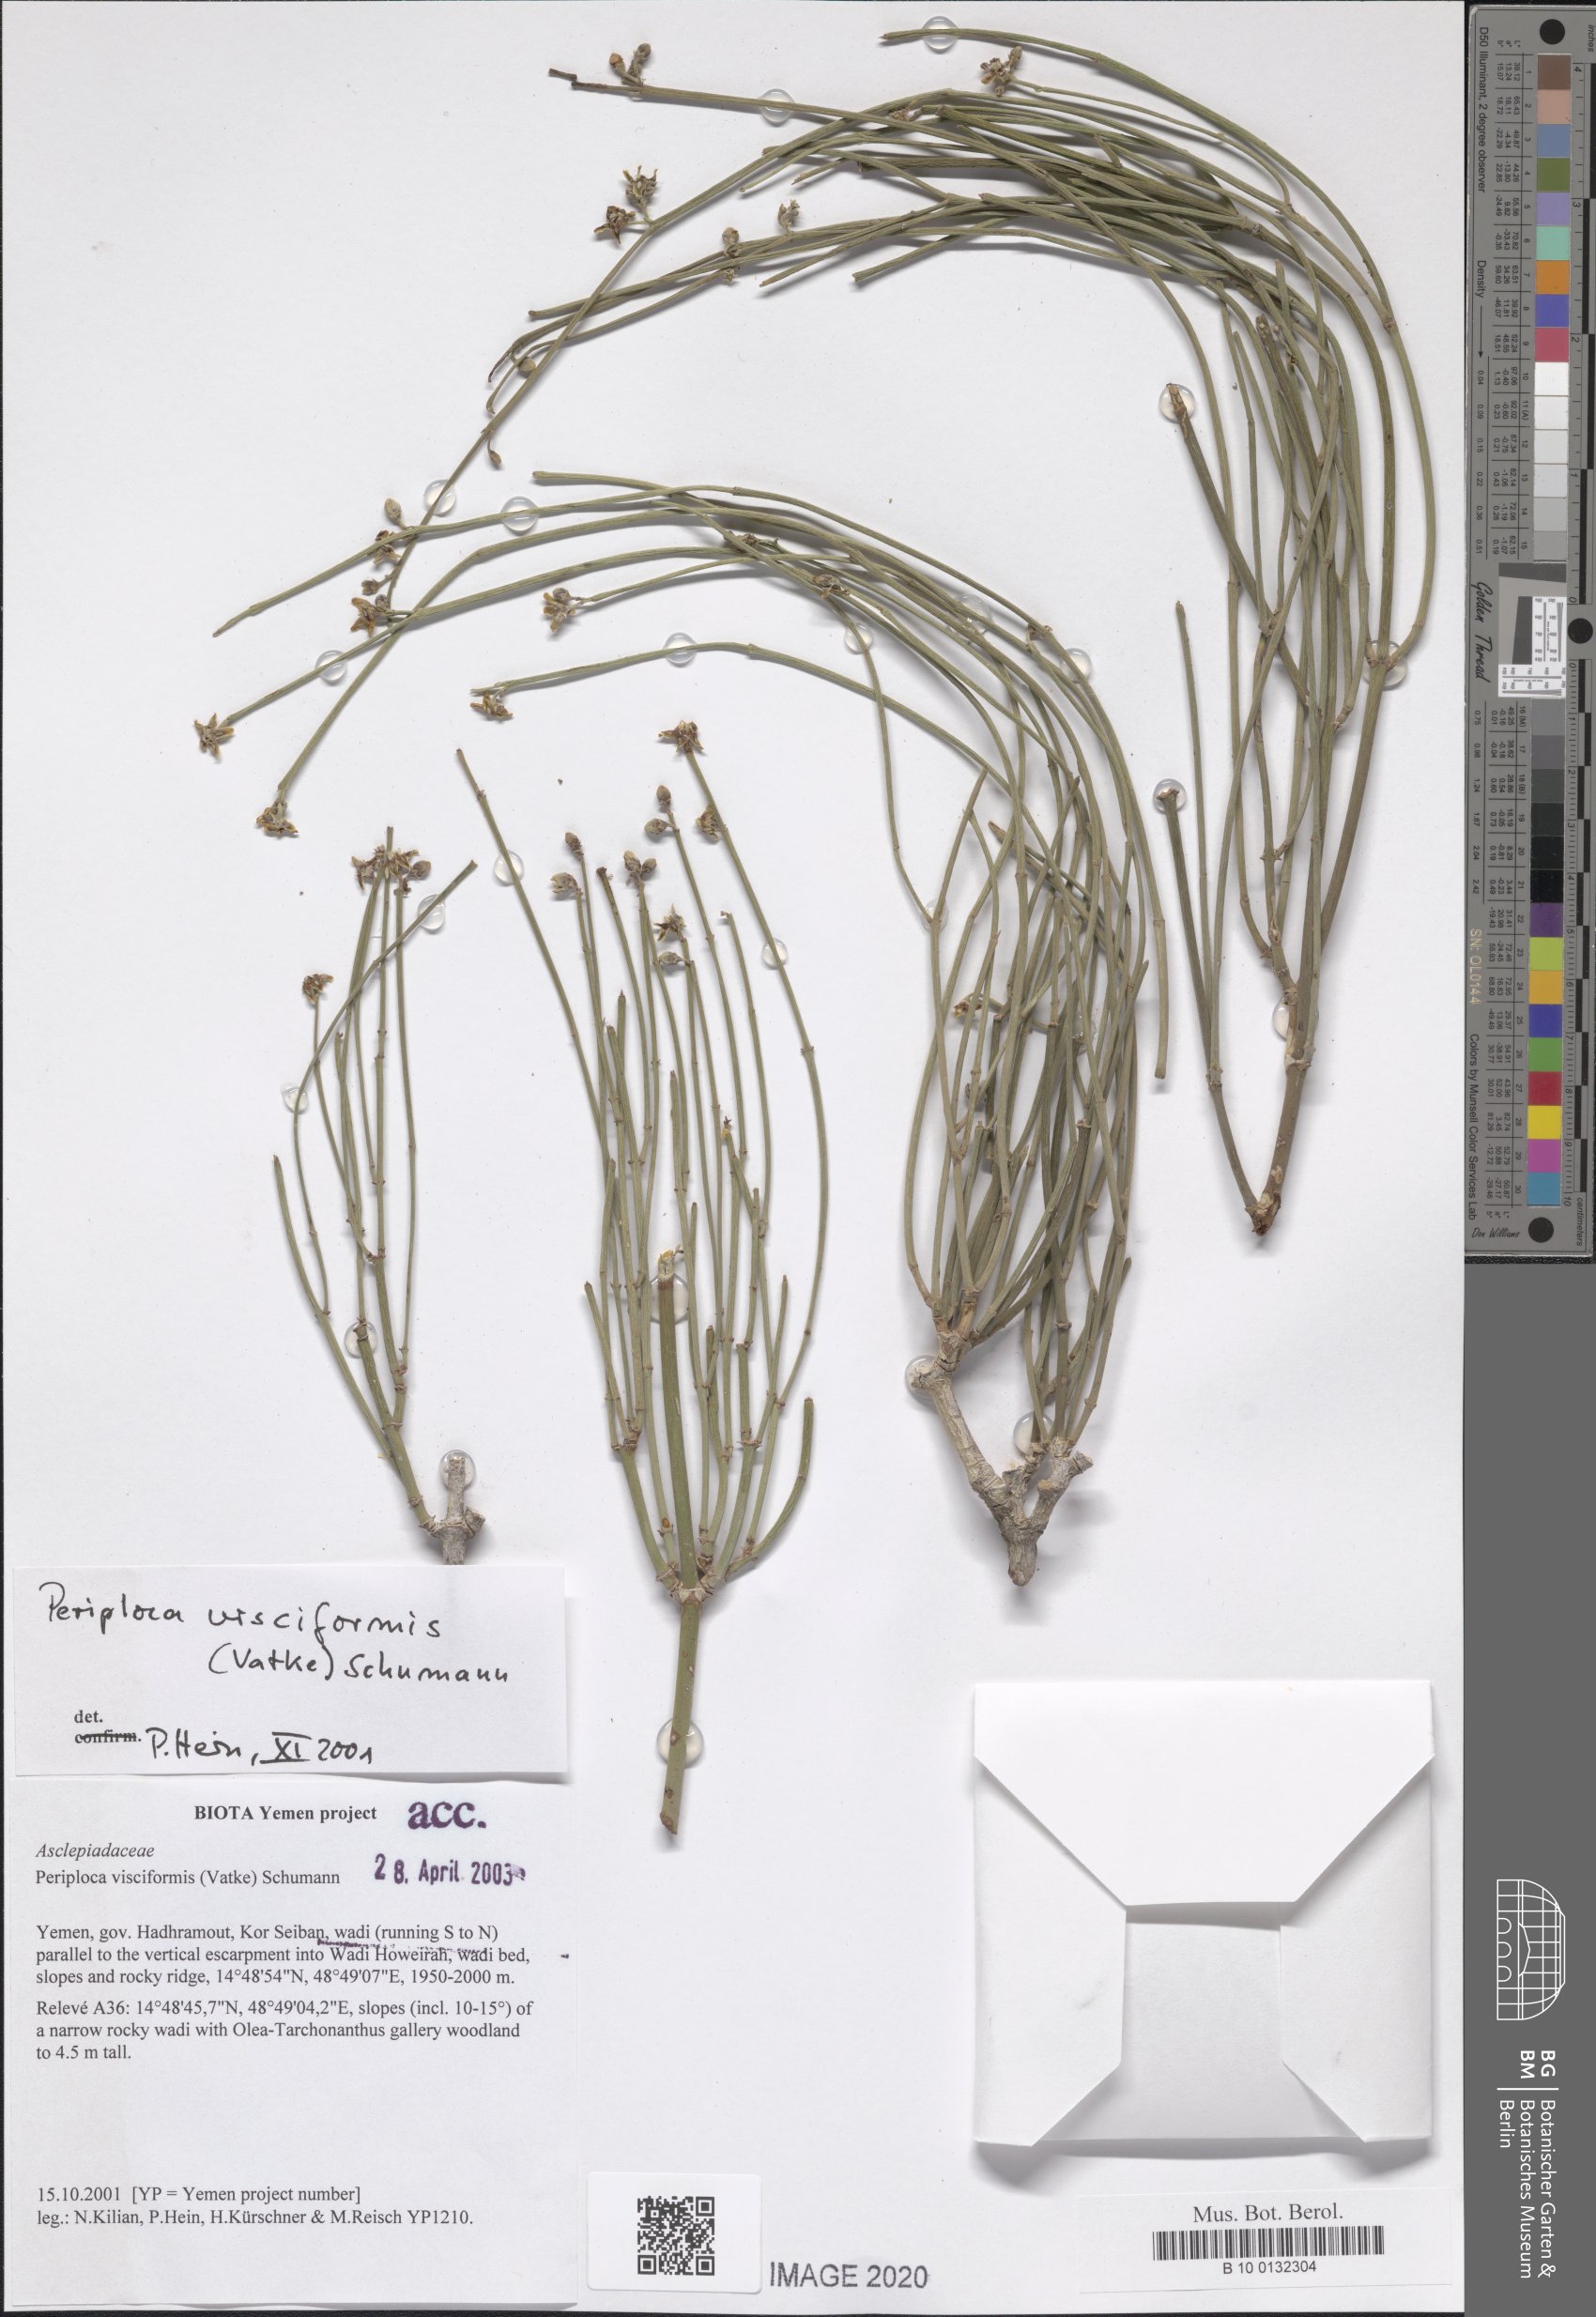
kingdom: Plantae
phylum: Tracheophyta
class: Magnoliopsida
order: Gentianales
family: Apocynaceae
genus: Periploca
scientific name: Periploca visciformis
